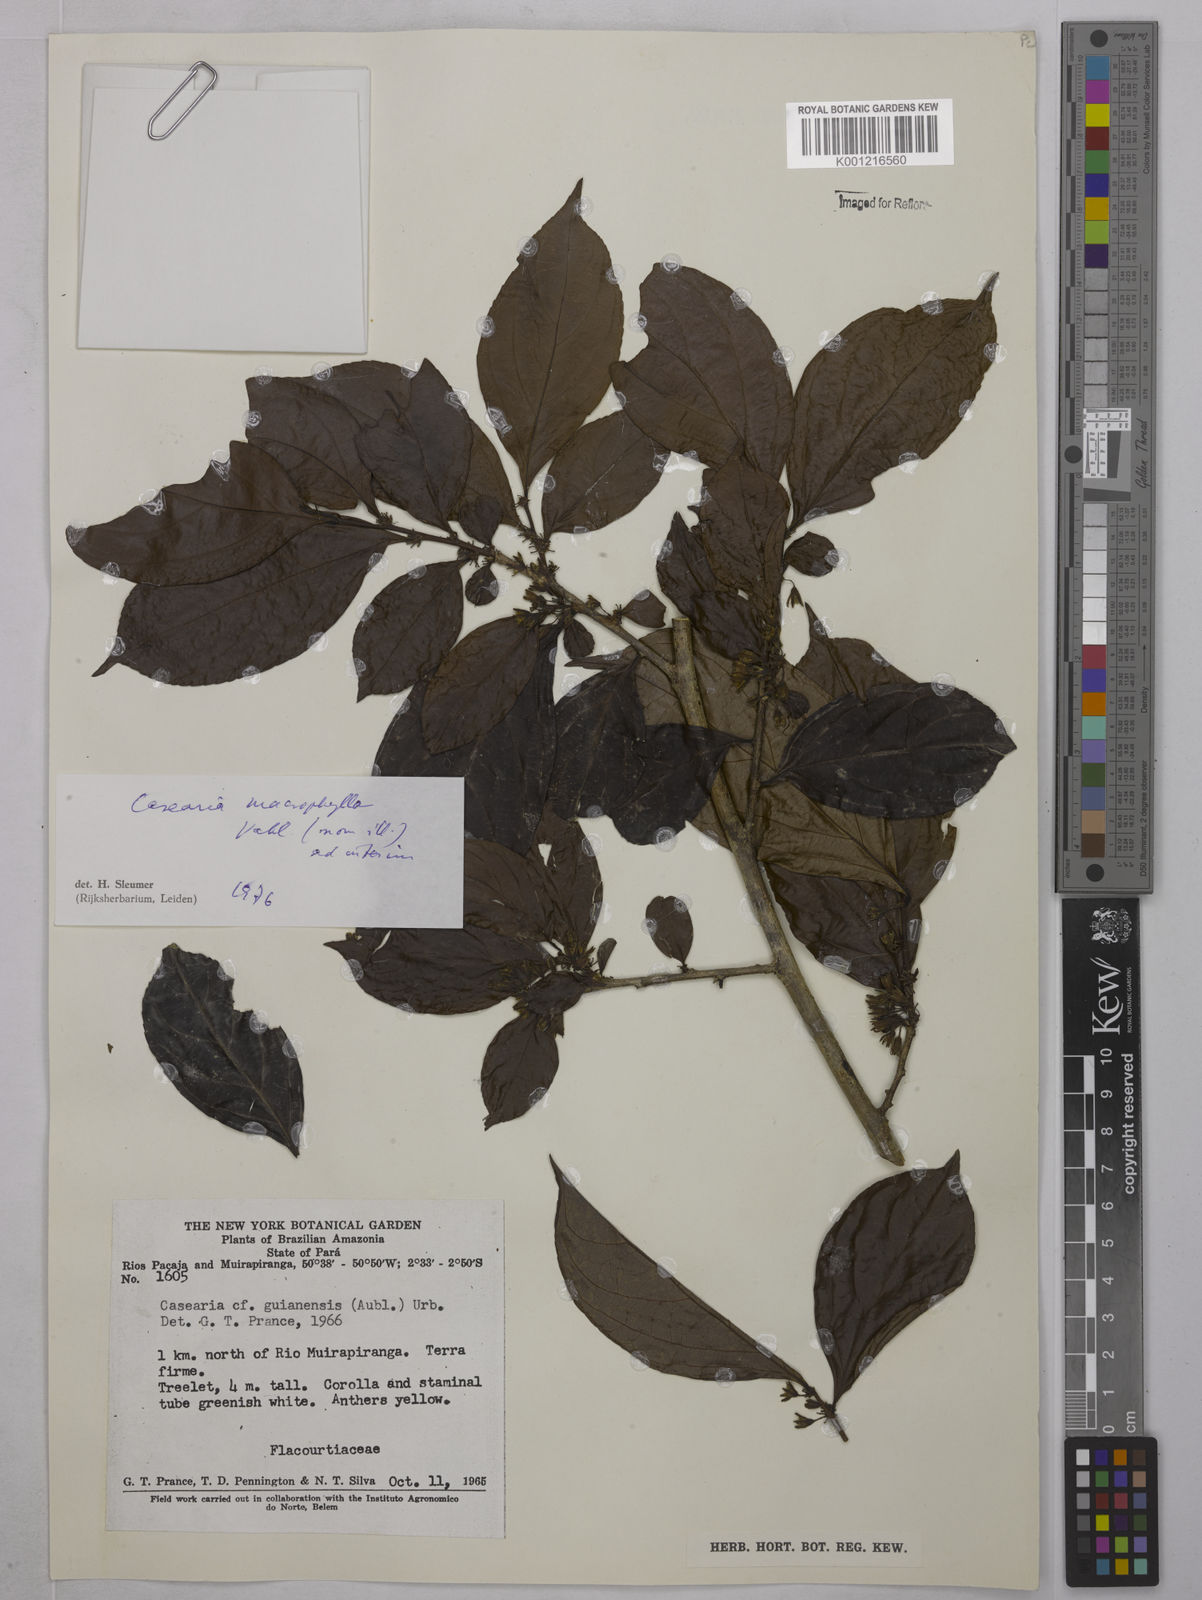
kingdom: Plantae
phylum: Tracheophyta
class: Magnoliopsida
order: Malpighiales
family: Salicaceae
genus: Casearia
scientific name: Casearia pitumba
